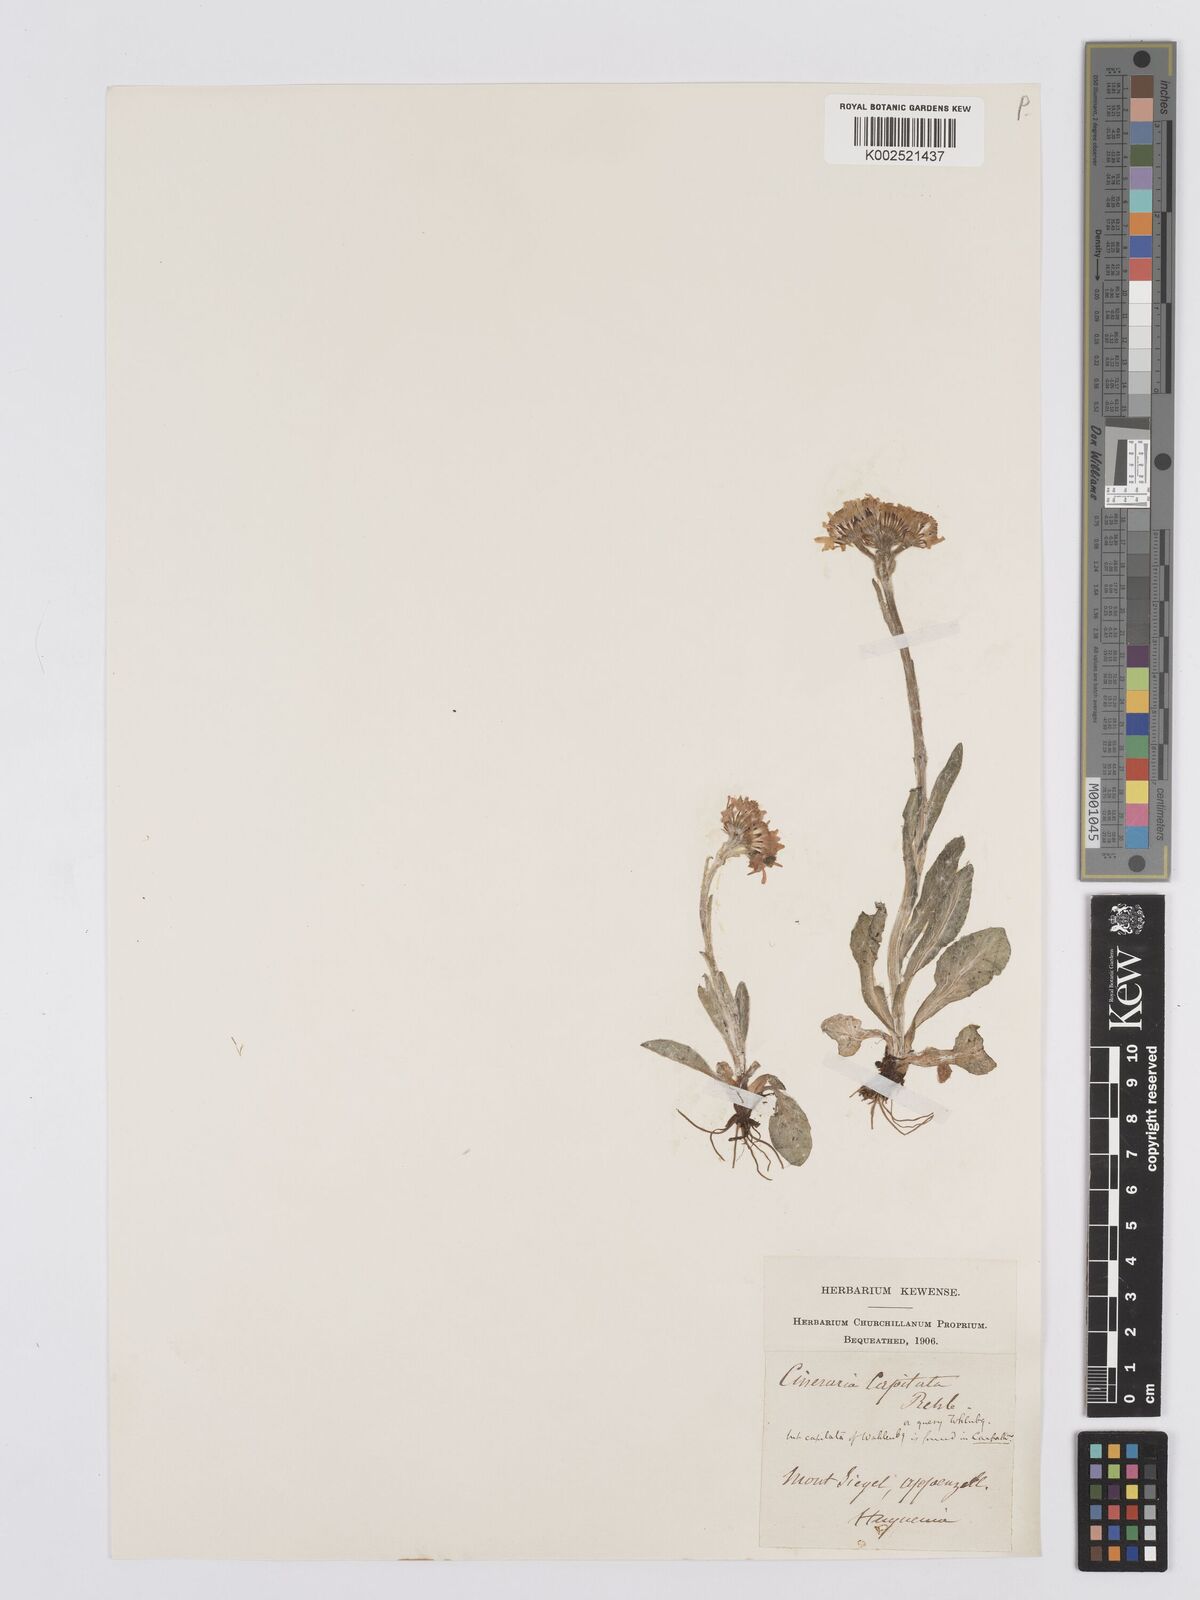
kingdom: Plantae
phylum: Tracheophyta
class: Magnoliopsida
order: Asterales
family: Asteraceae
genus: Tephroseris
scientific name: Tephroseris aurantiaca
